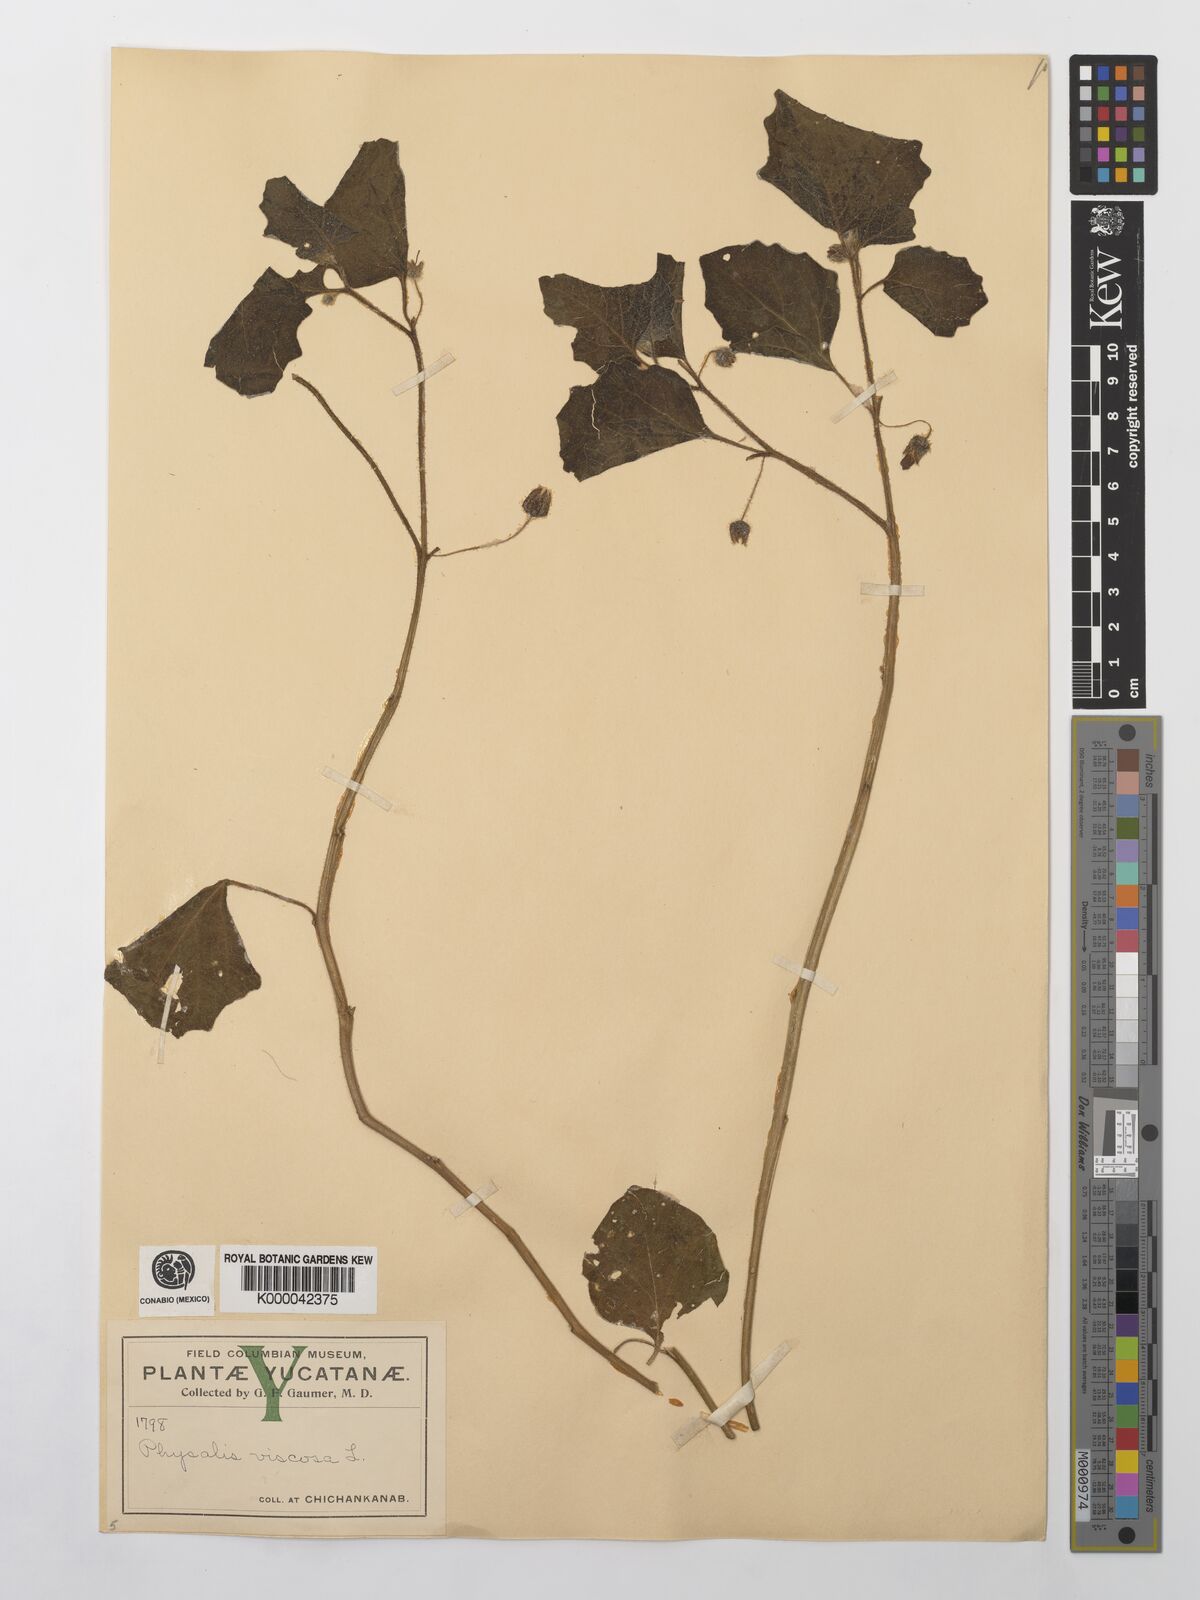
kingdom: Plantae
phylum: Tracheophyta
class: Magnoliopsida
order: Solanales
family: Solanaceae
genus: Physalis
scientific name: Physalis viscosa
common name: Stellate ground-cherry
